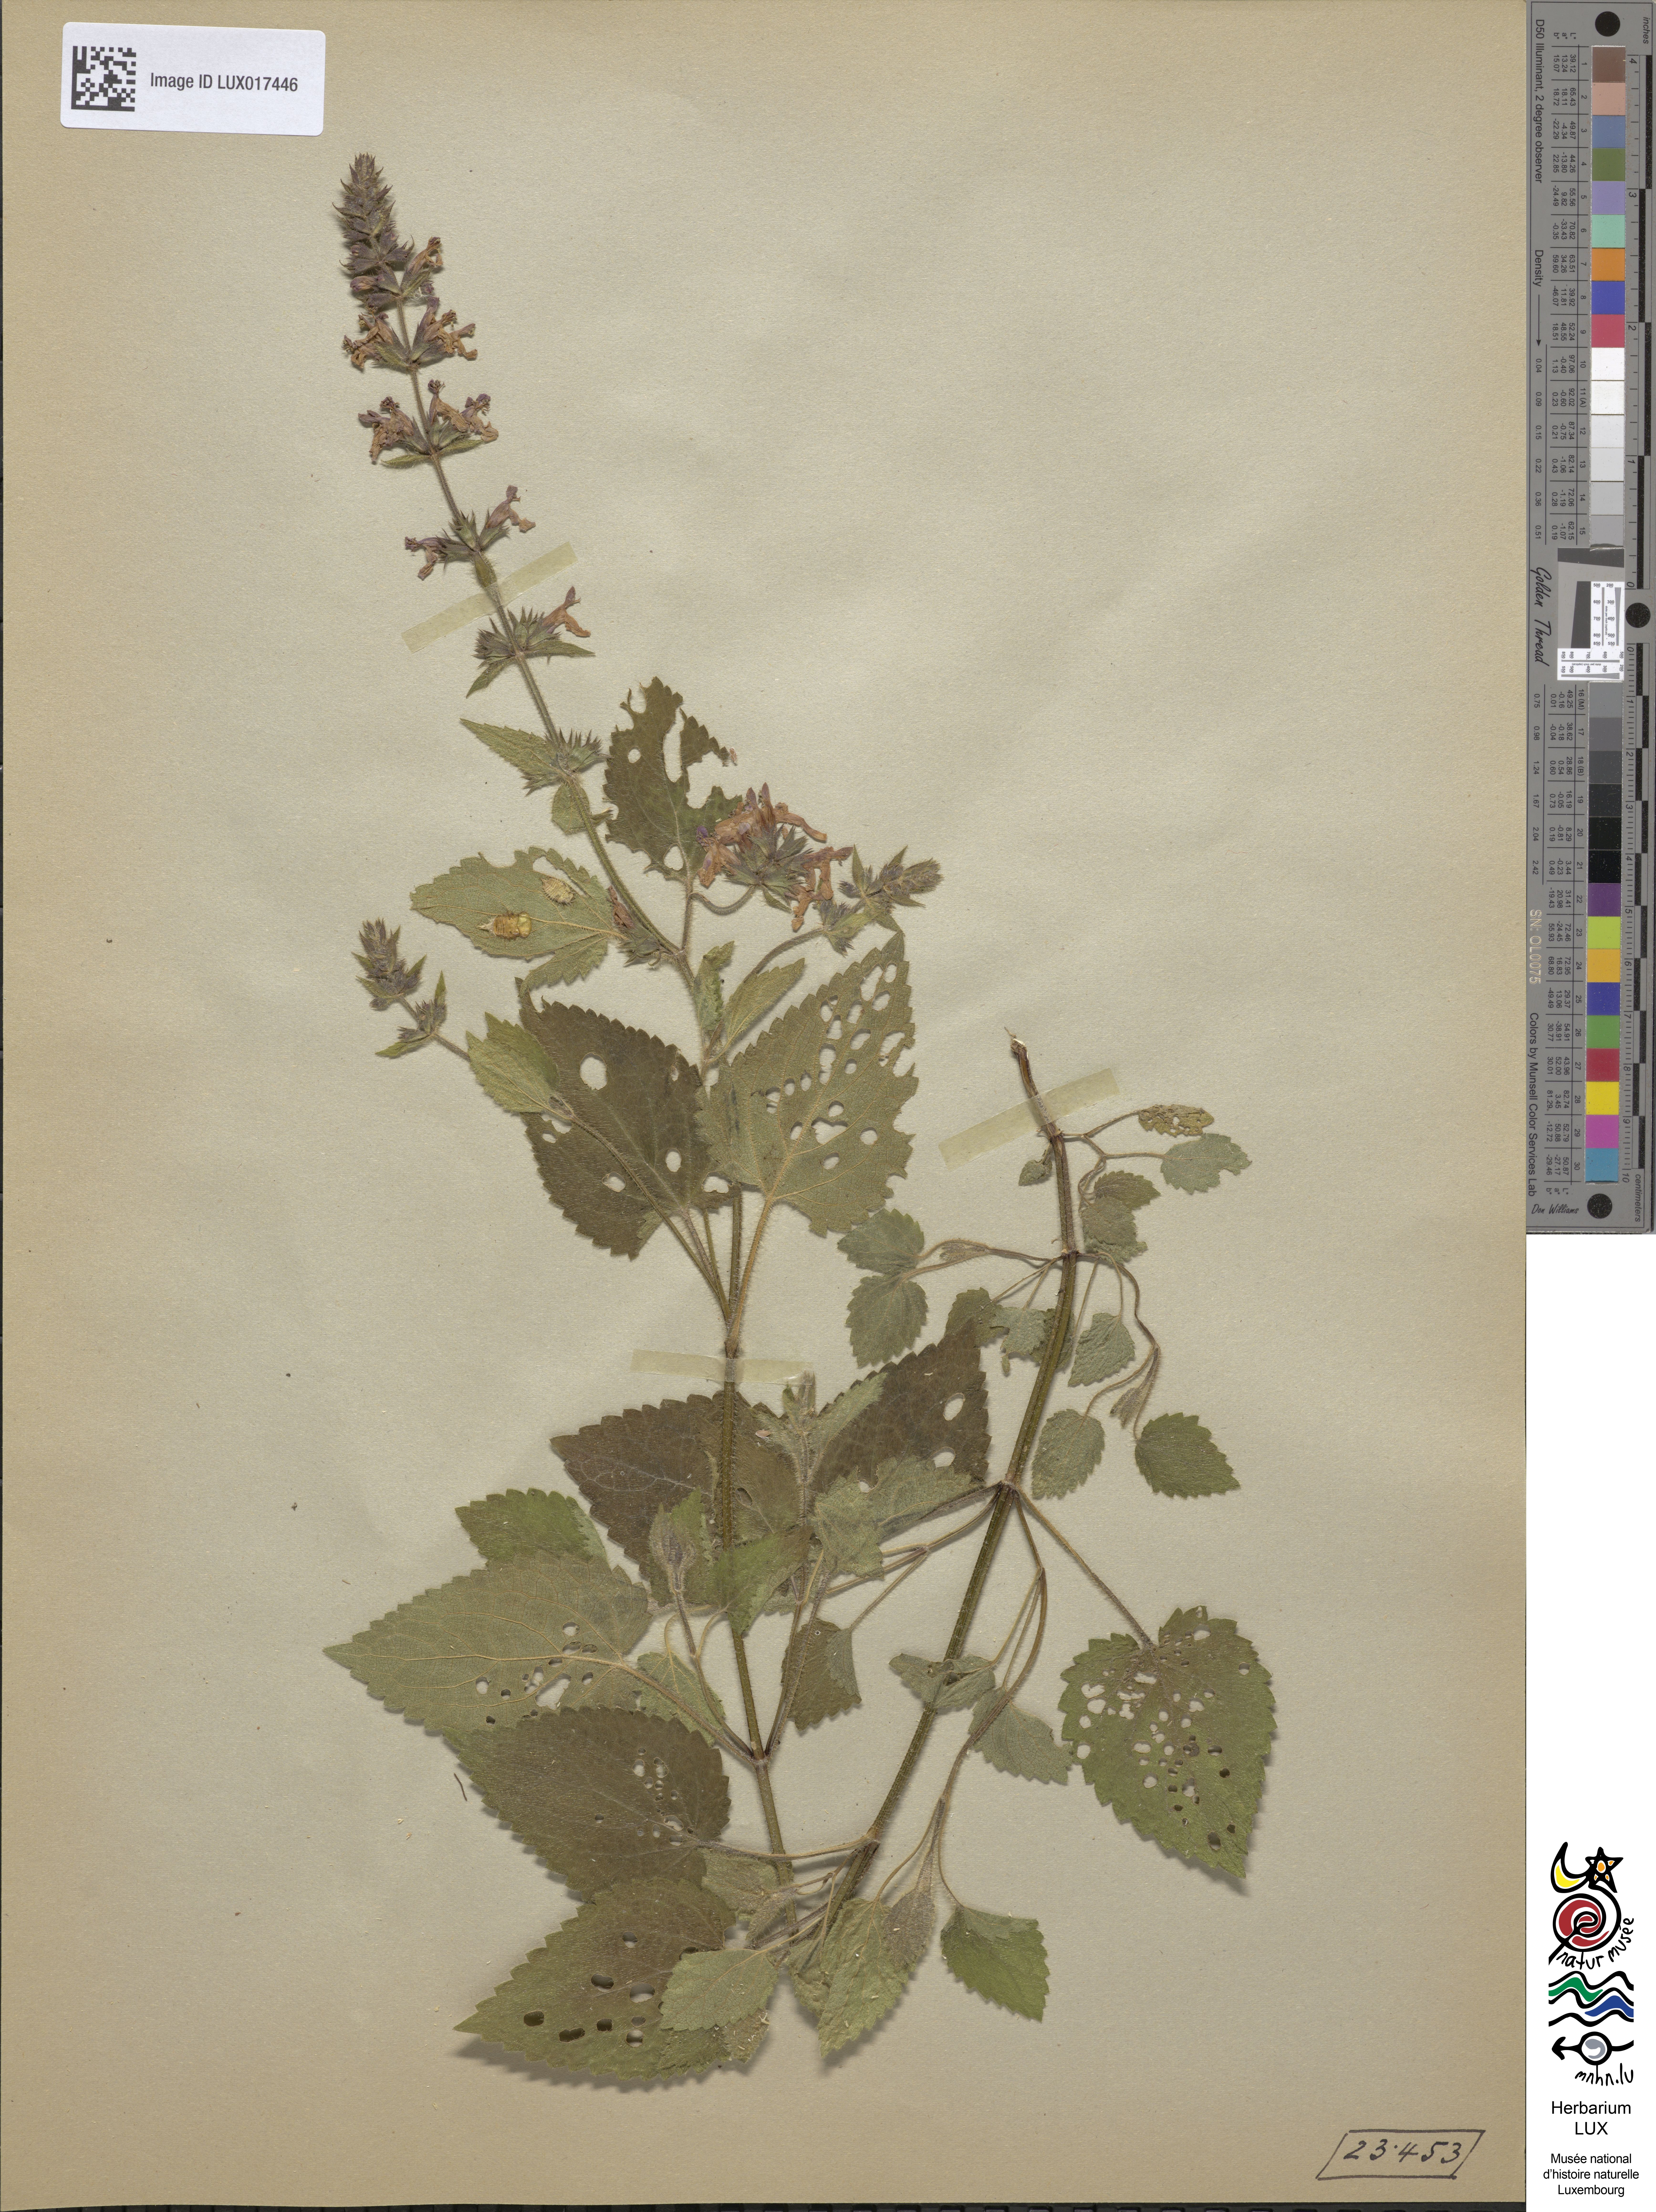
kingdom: Plantae
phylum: Tracheophyta
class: Magnoliopsida
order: Lamiales
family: Lamiaceae
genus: Stachys
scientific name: Stachys sylvatica
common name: Hedge woundwort
